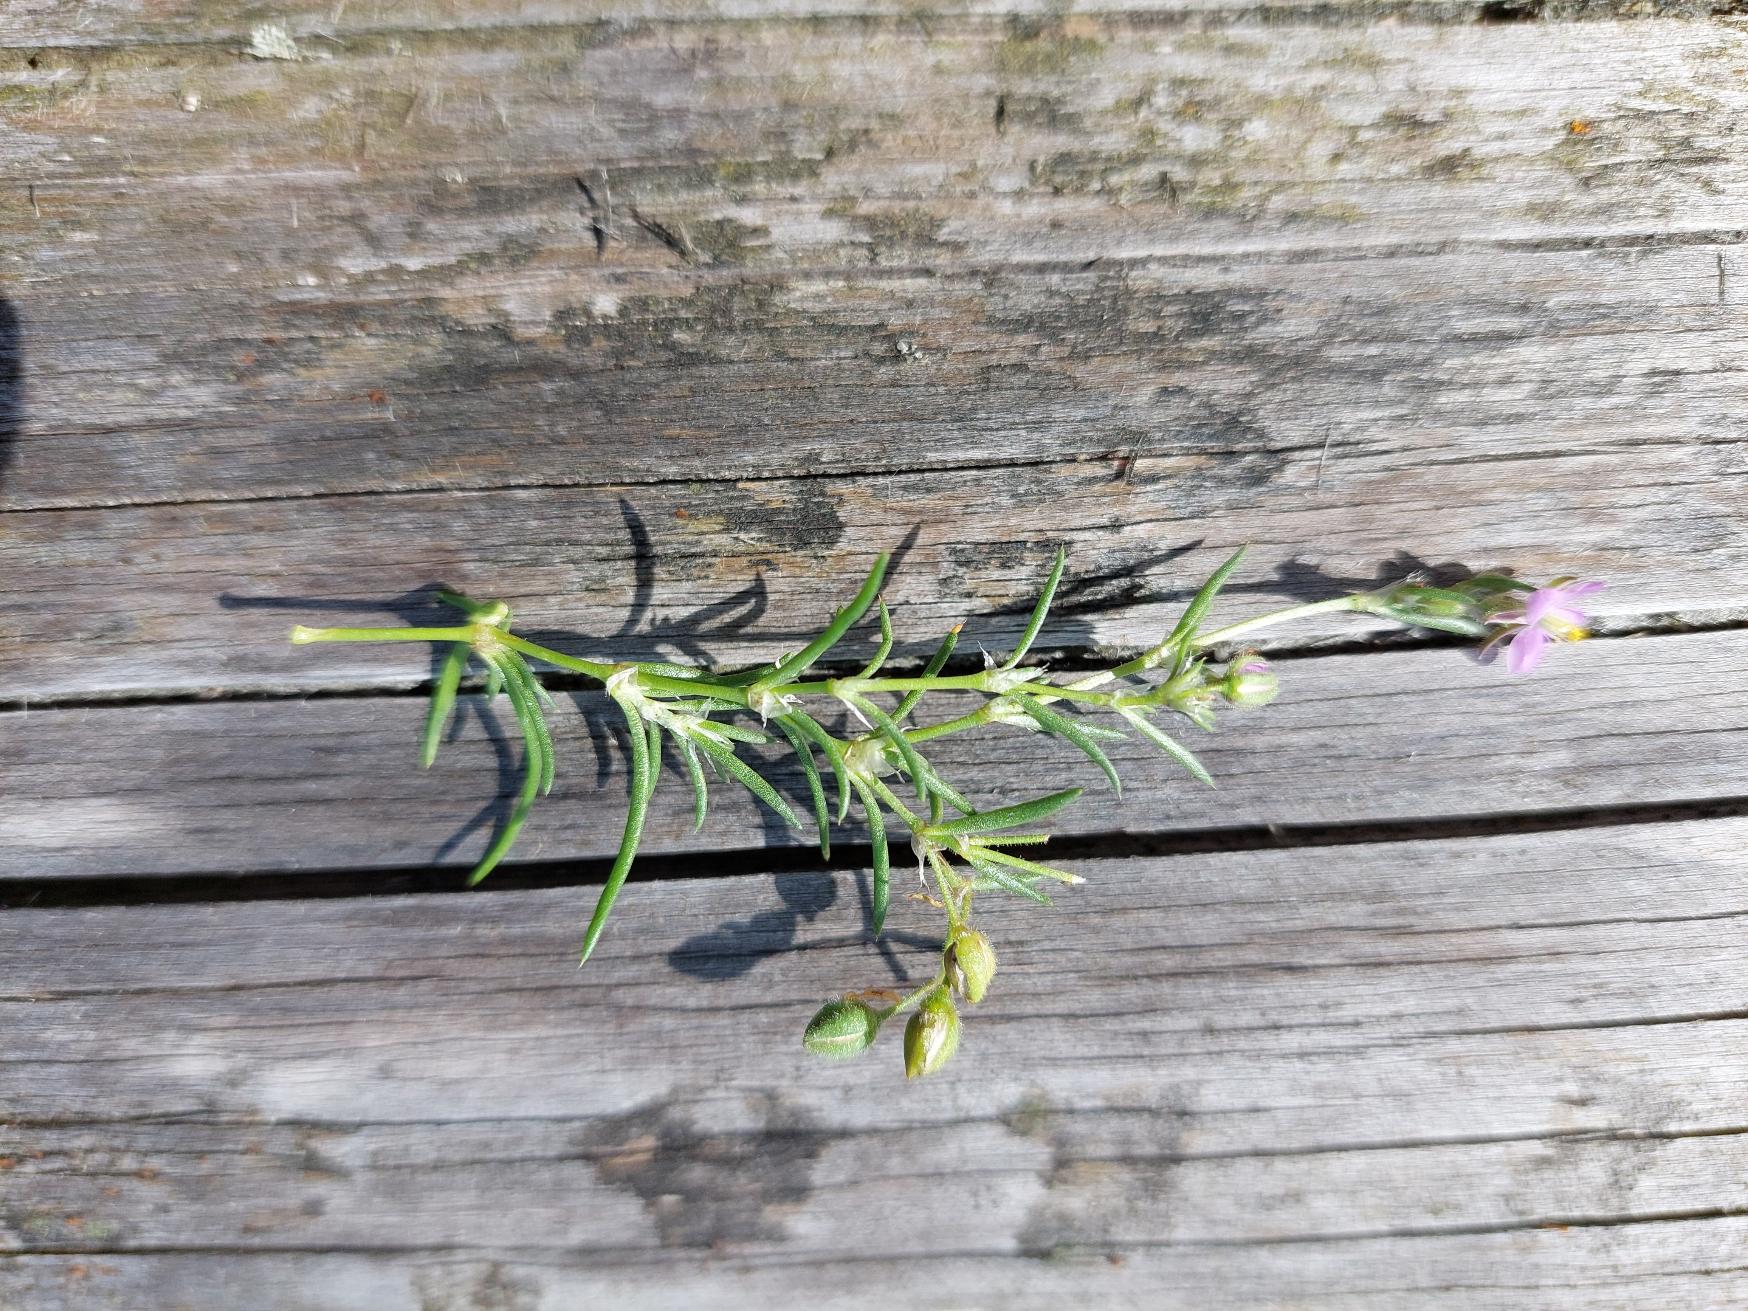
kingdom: Plantae
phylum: Tracheophyta
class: Magnoliopsida
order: Caryophyllales
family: Caryophyllaceae
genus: Spergularia
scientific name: Spergularia rubra
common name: Mark-hindeknæ
